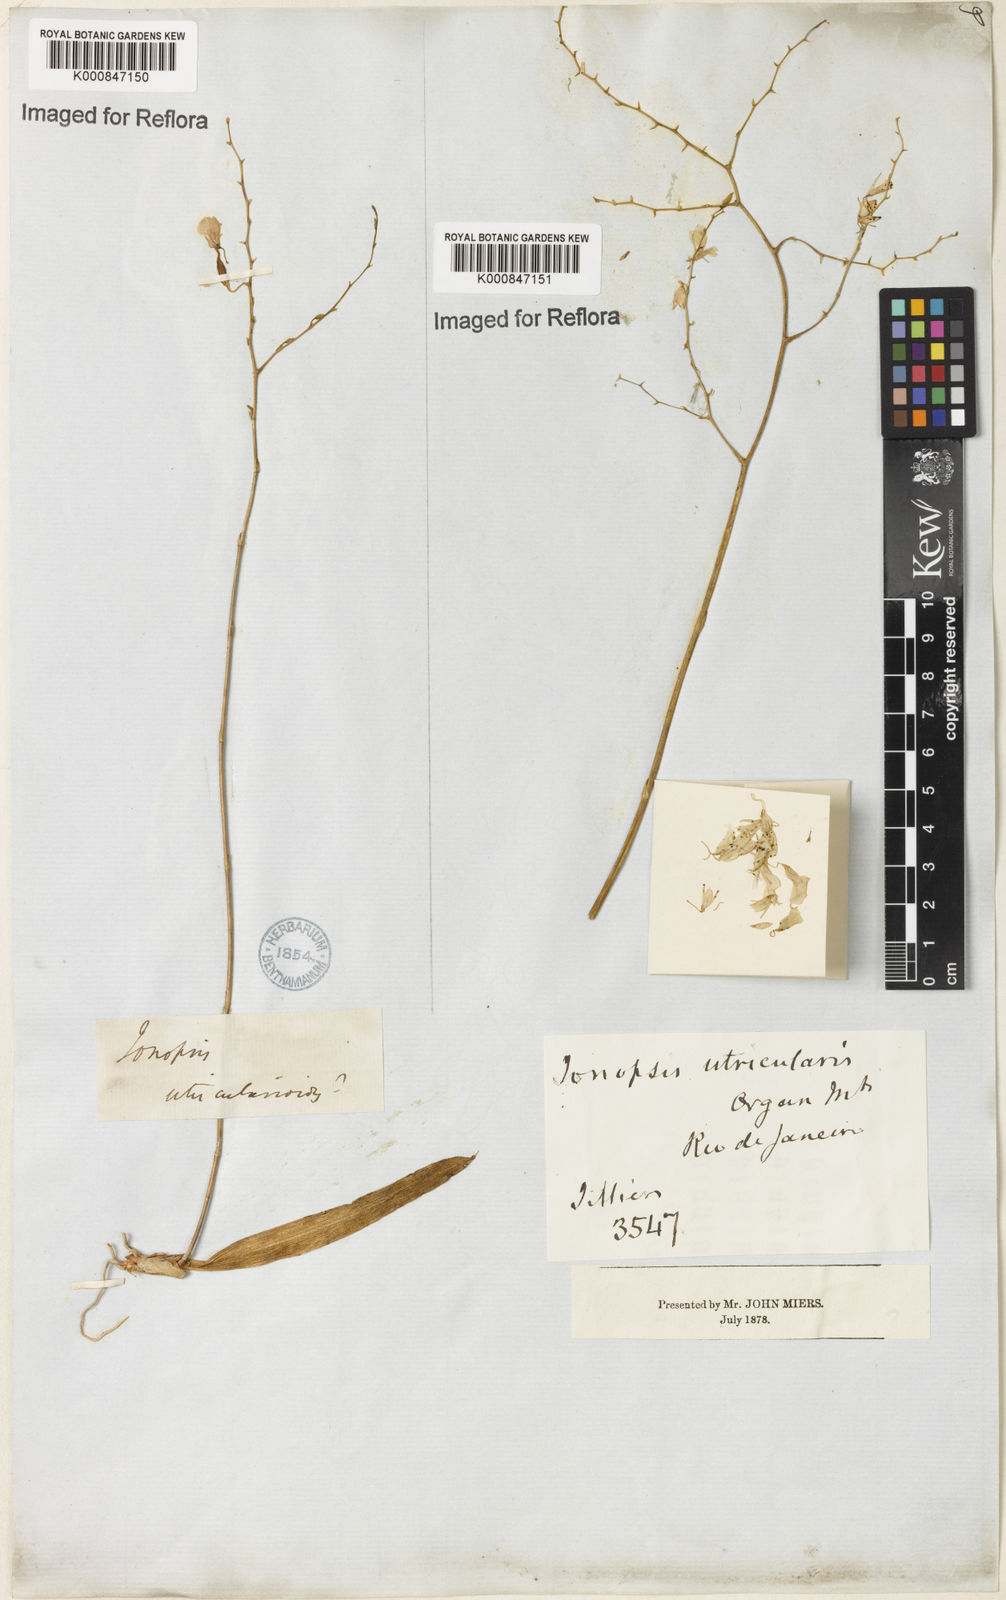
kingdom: Plantae
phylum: Tracheophyta
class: Liliopsida
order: Asparagales
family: Orchidaceae
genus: Ionopsis
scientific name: Ionopsis utricularioides
